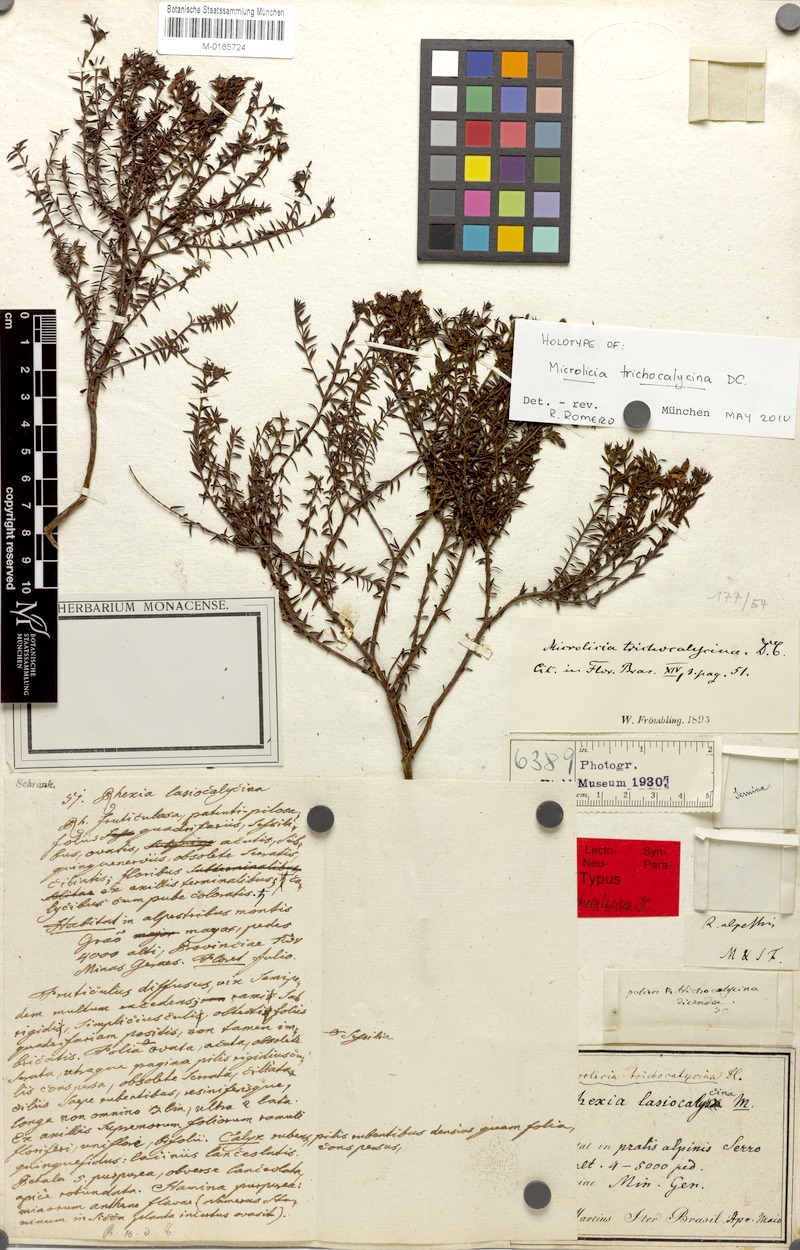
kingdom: Plantae
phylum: Tracheophyta
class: Magnoliopsida
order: Myrtales
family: Melastomataceae
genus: Microlicia
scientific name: Microlicia trichocalycina
